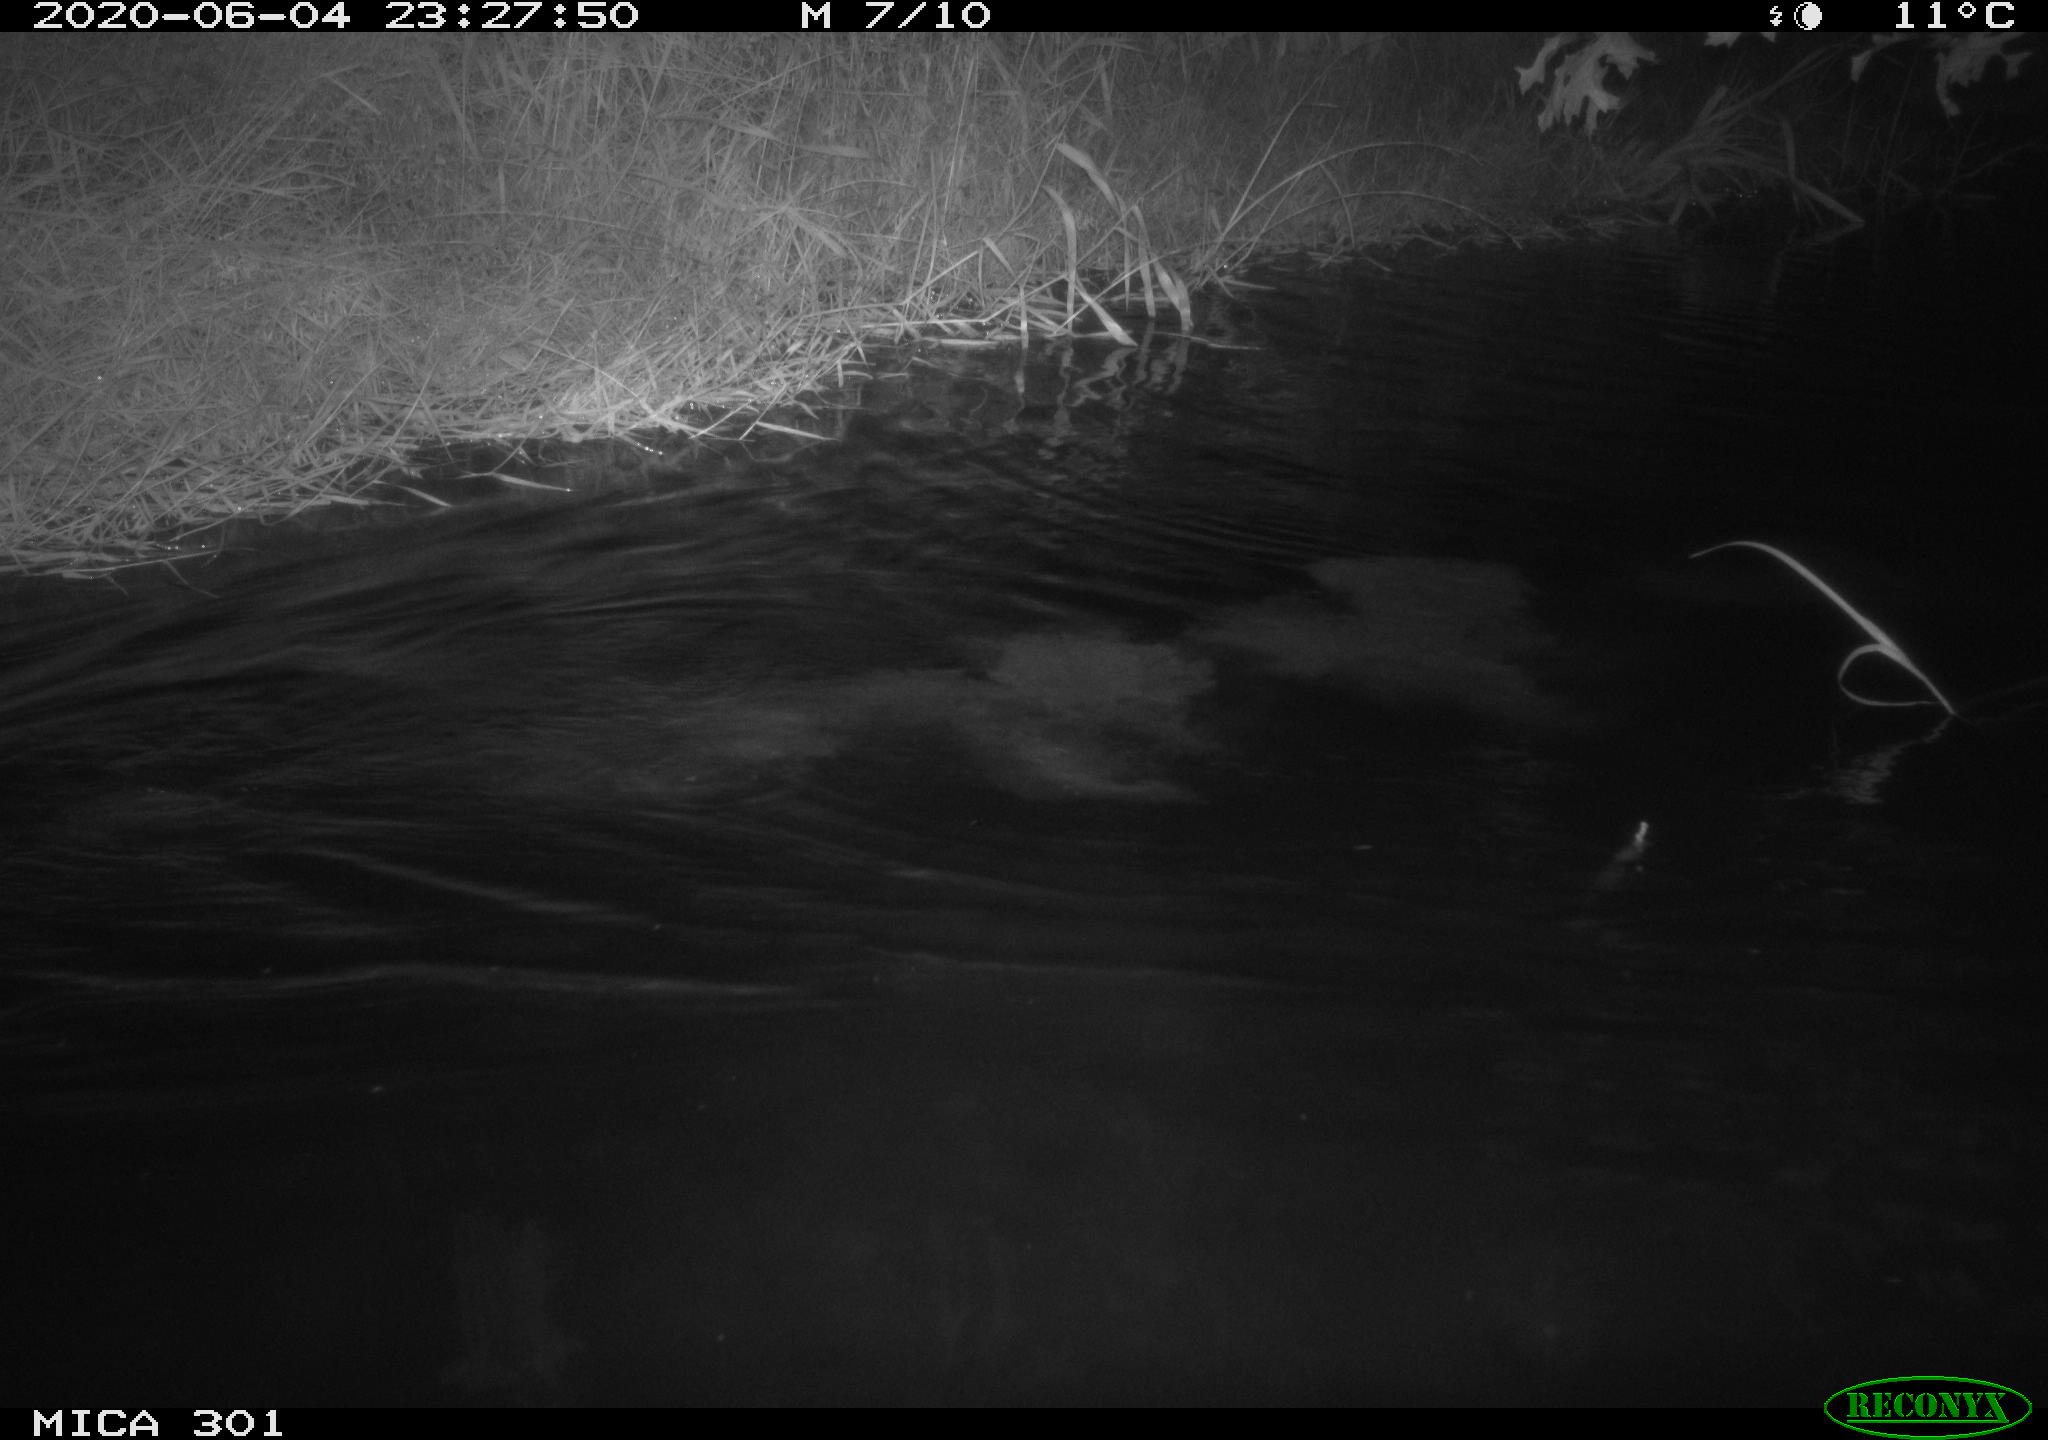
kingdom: Animalia
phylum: Chordata
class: Mammalia
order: Rodentia
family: Castoridae
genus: Castor
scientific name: Castor fiber
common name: Eurasian beaver
